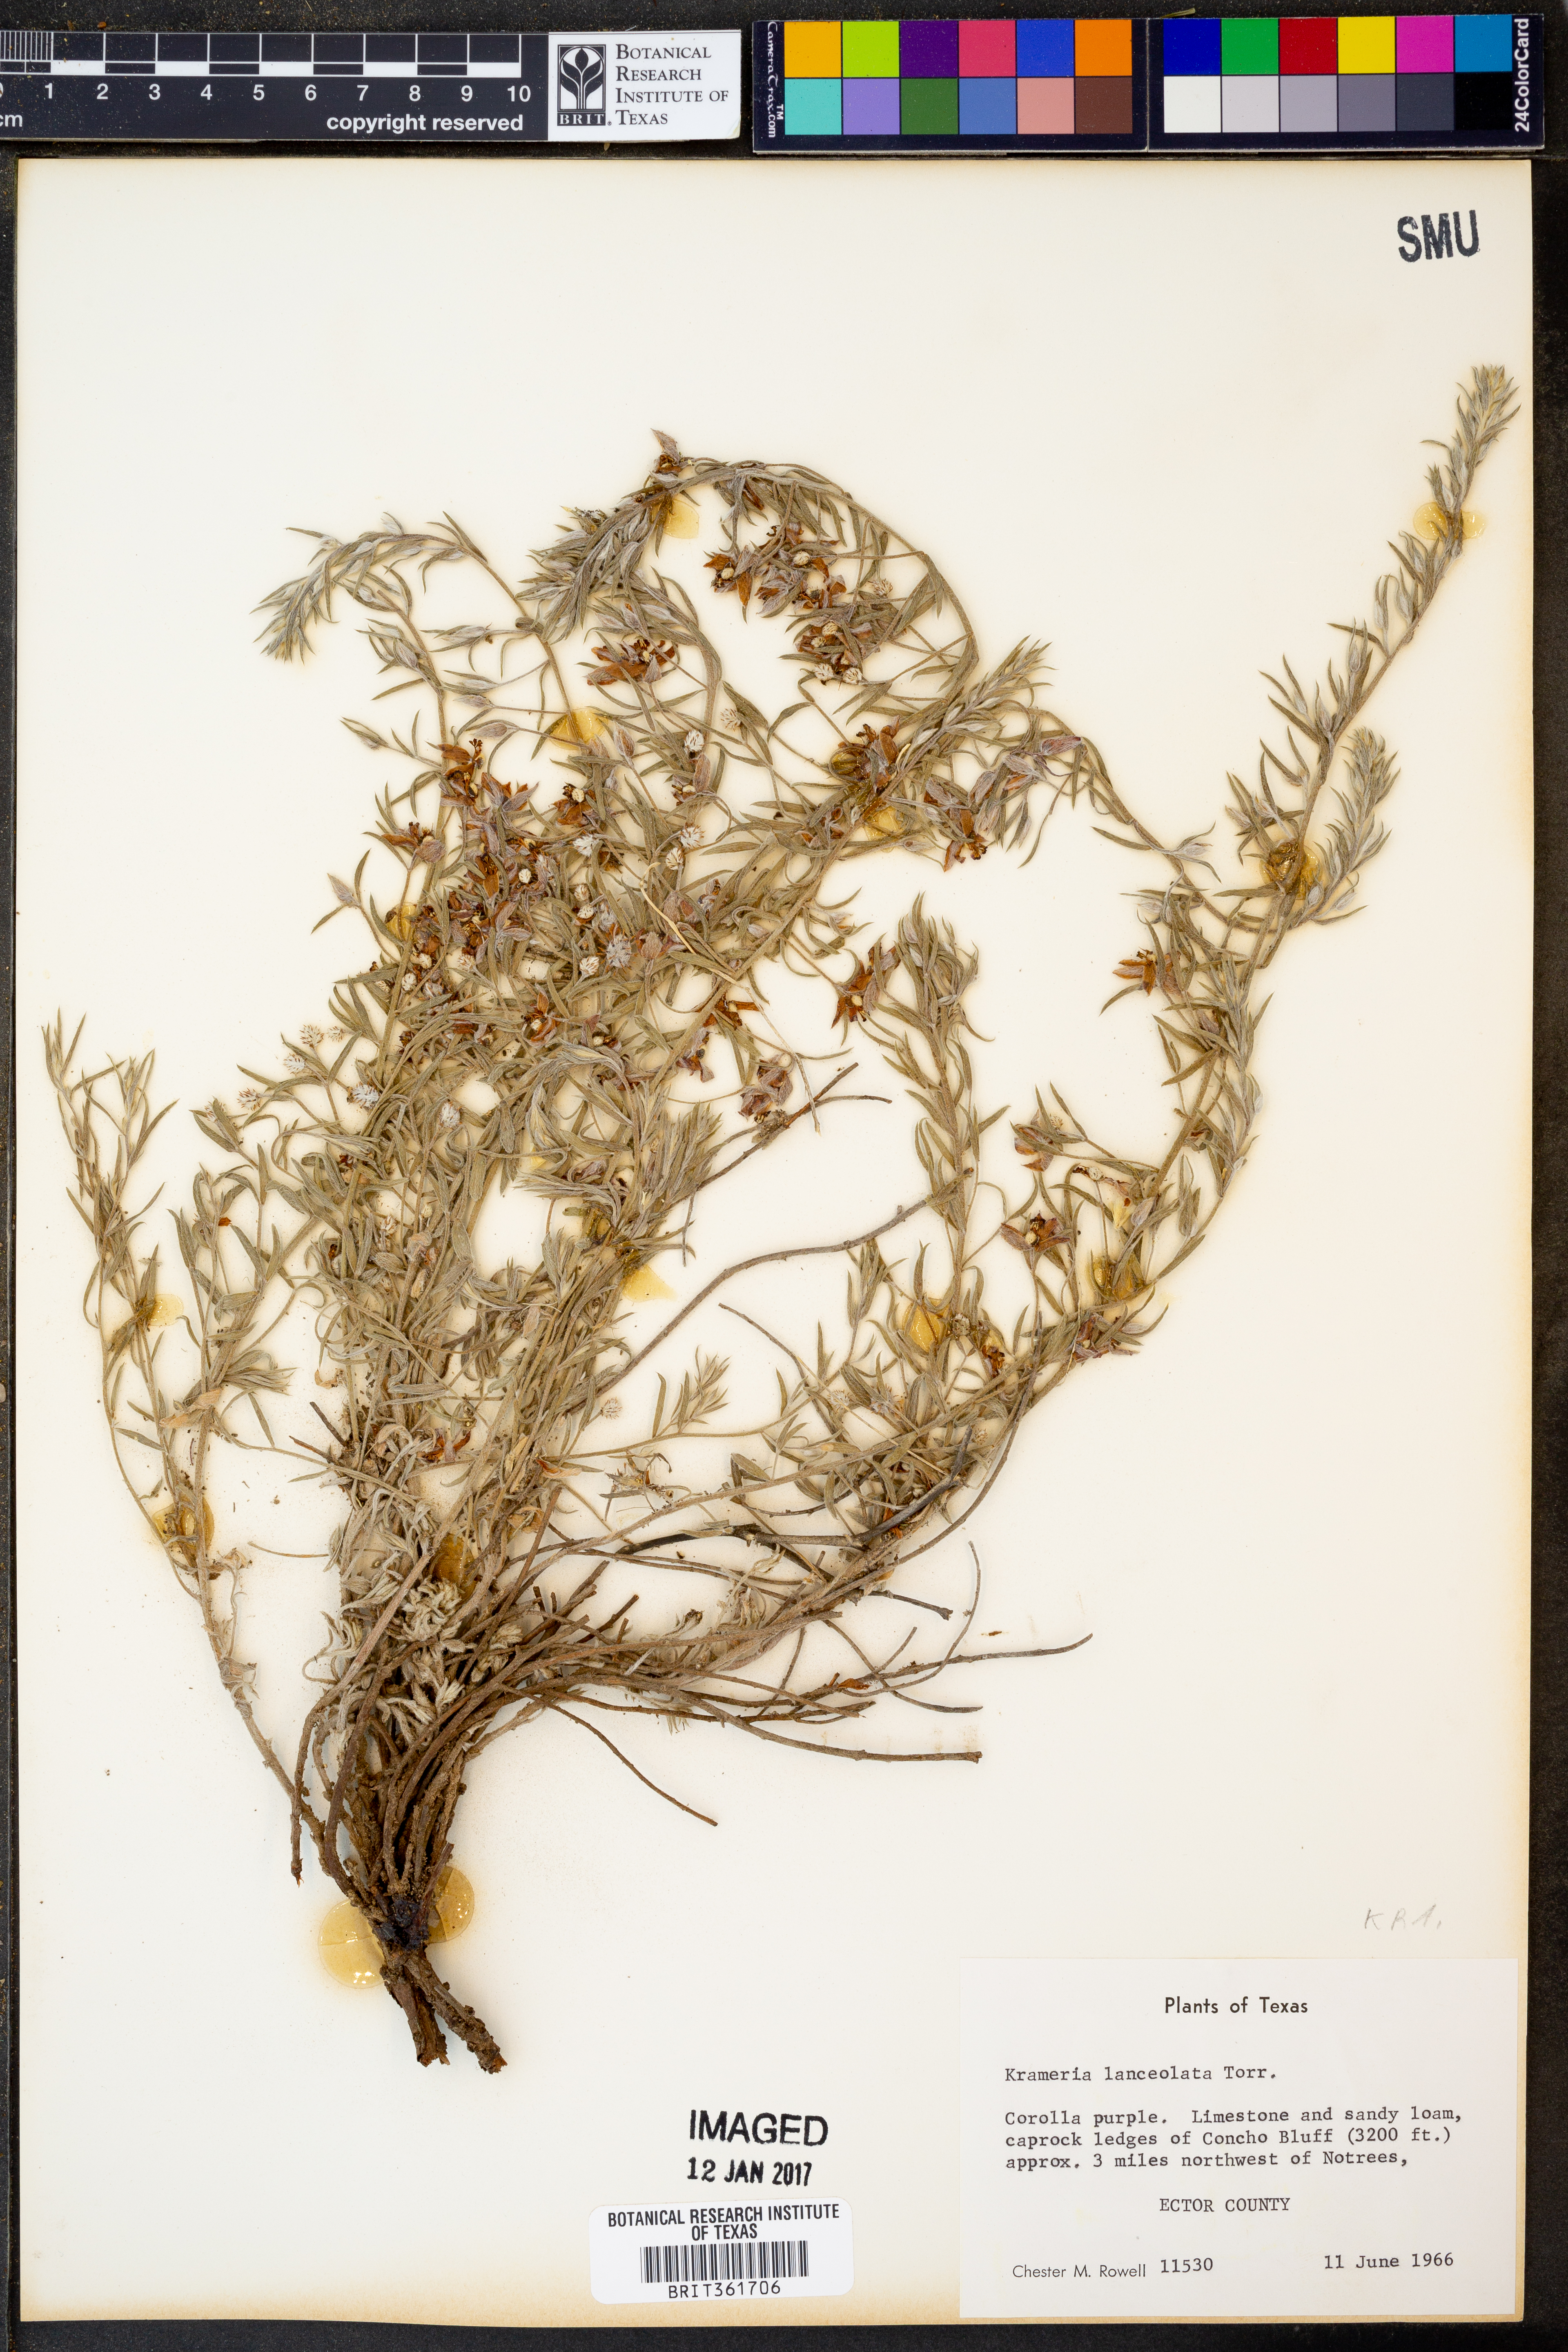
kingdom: Plantae
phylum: Tracheophyta
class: Magnoliopsida
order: Zygophyllales
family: Krameriaceae
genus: Krameria
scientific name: Krameria lanceolata
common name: Ratany
